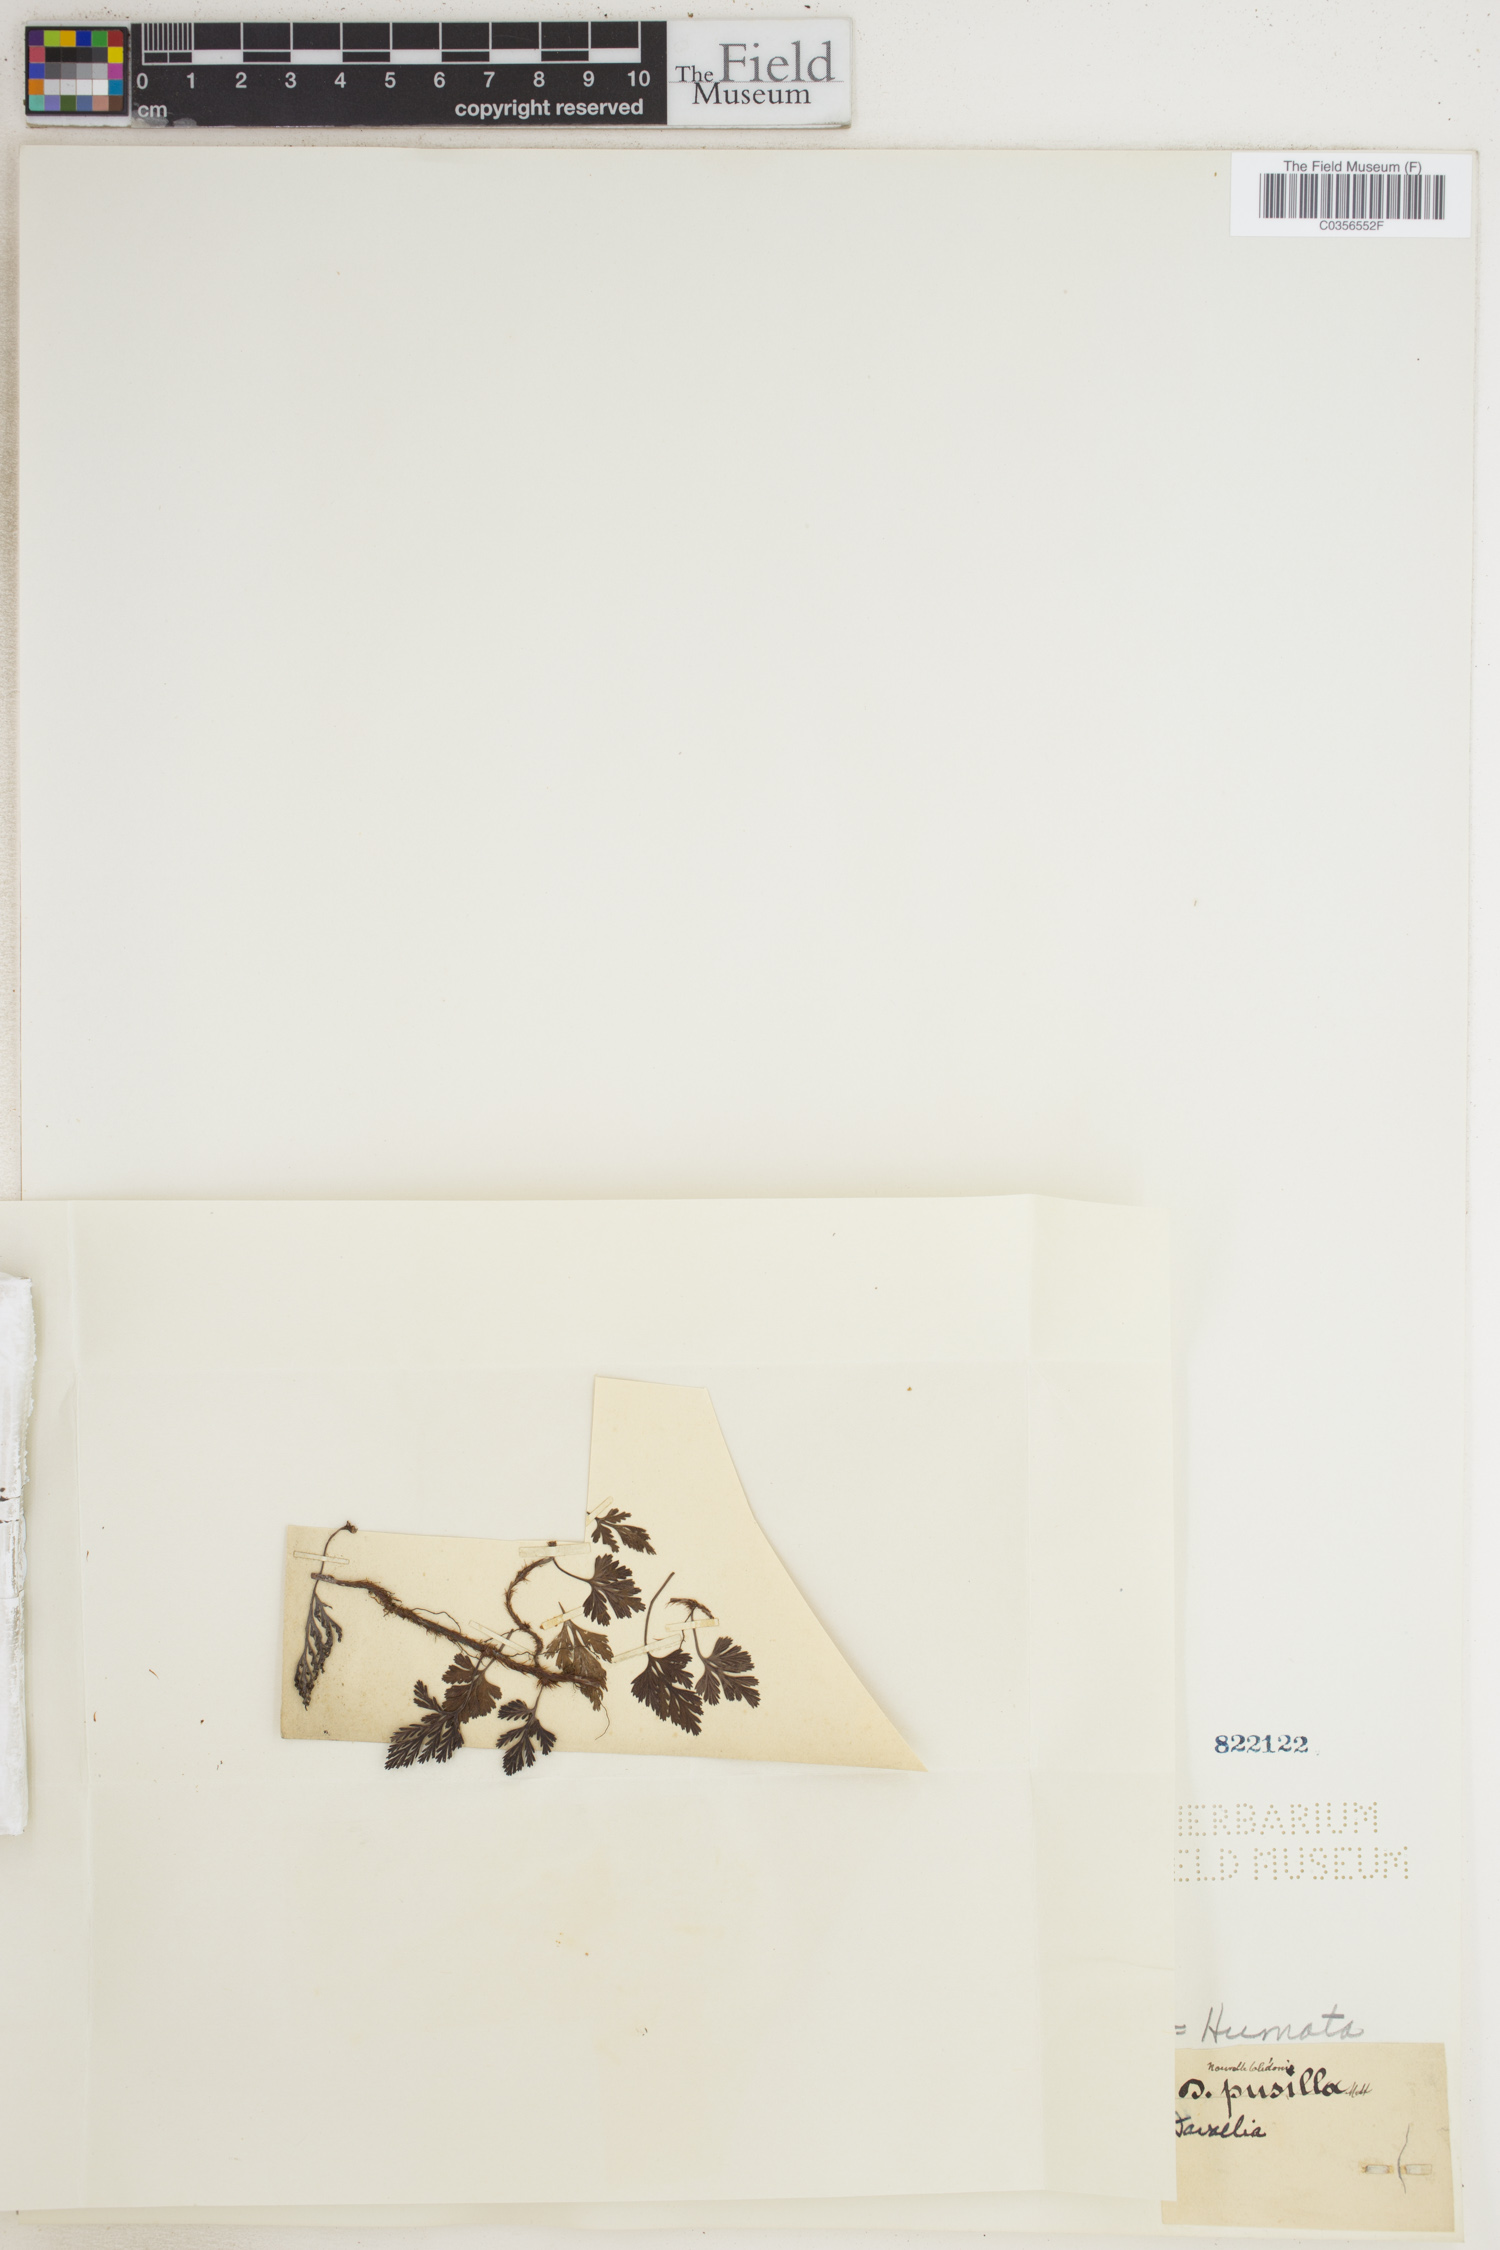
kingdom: Plantae
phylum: Tracheophyta
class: Polypodiopsida
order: Polypodiales
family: Davalliaceae
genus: Davallia
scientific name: Davallia
